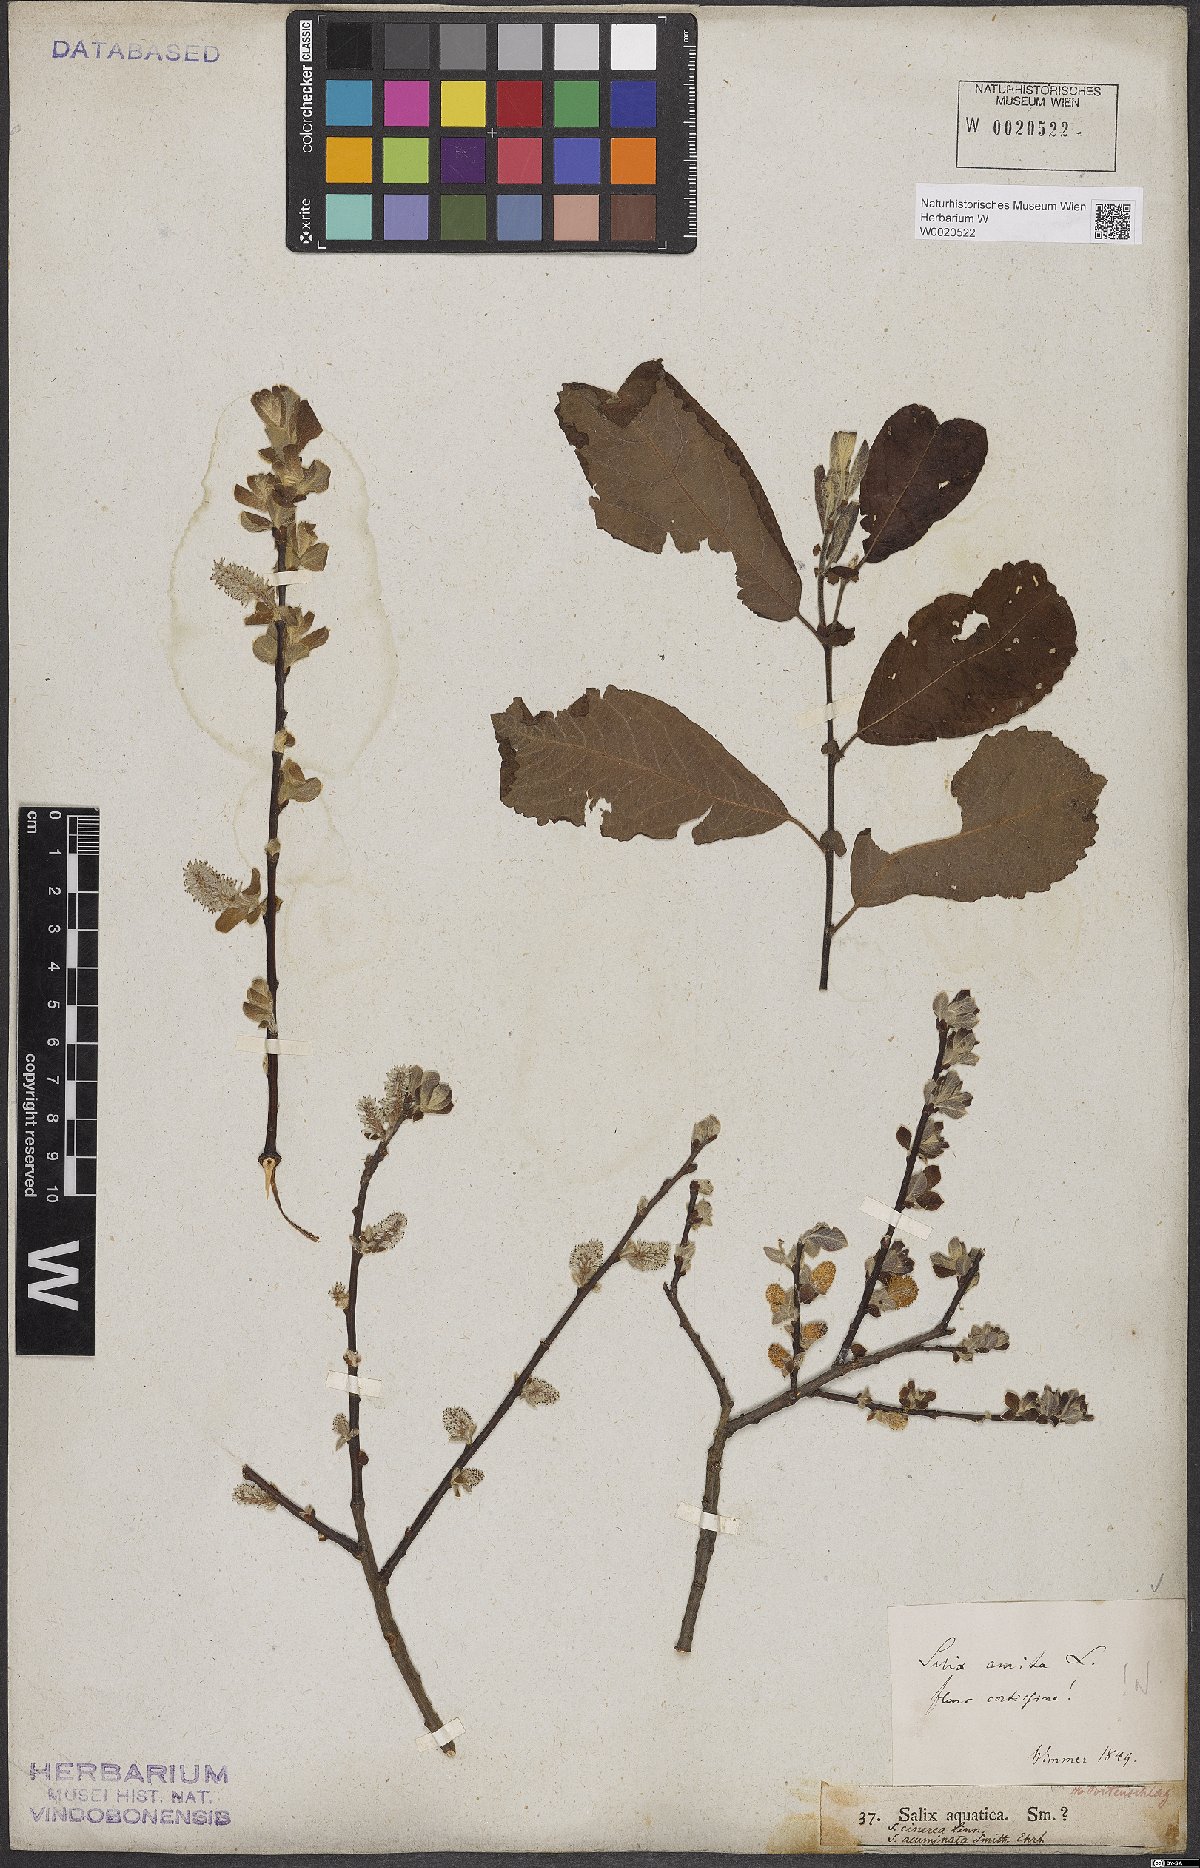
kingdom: Plantae
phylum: Tracheophyta
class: Magnoliopsida
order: Malpighiales
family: Salicaceae
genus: Salix
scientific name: Salix aurita
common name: Eared willow
